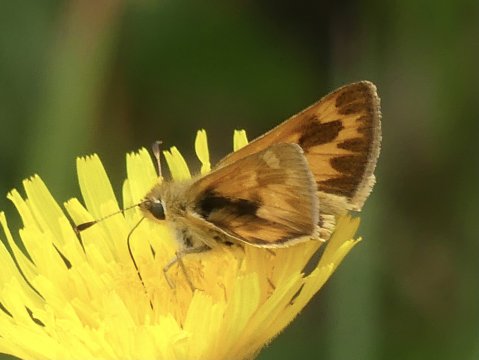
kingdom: Animalia
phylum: Arthropoda
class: Insecta
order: Lepidoptera
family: Hesperiidae
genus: Ochlodes
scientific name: Ochlodes sylvanoides
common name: Woodland Skipper
